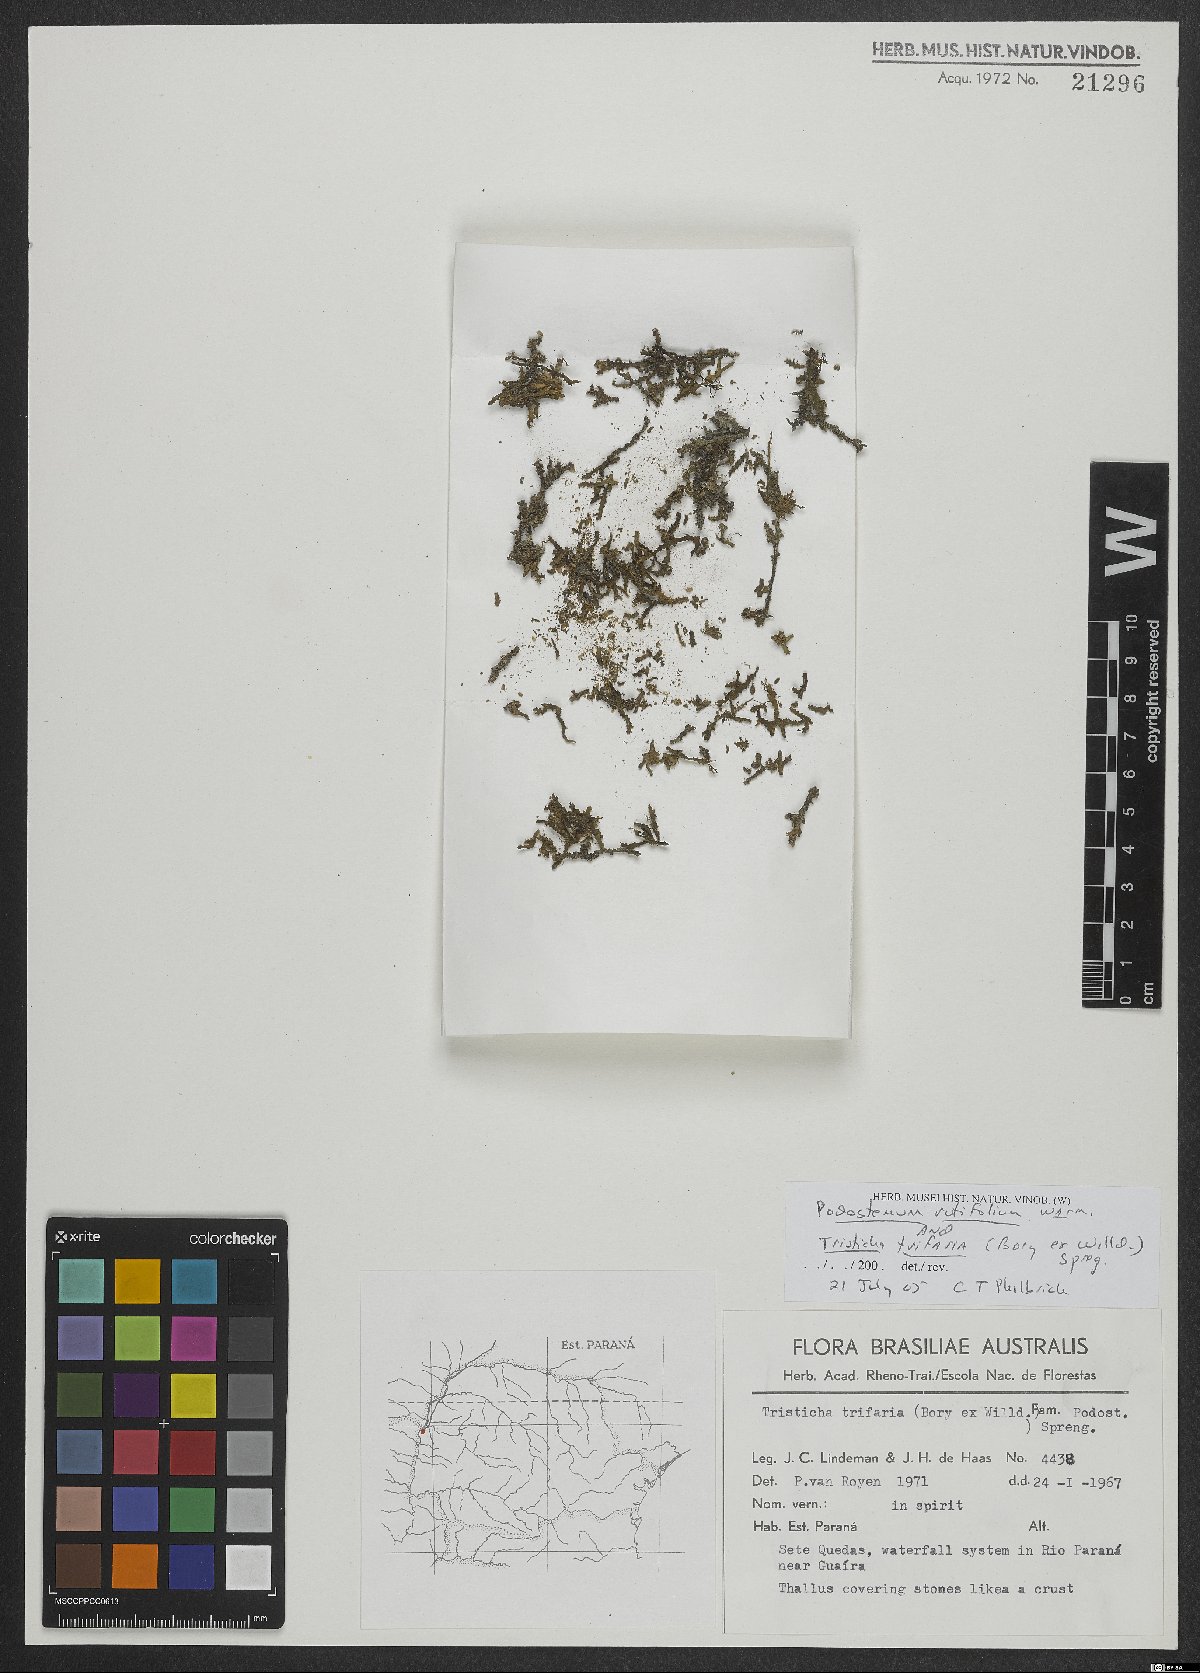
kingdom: Plantae
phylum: Tracheophyta
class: Magnoliopsida
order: Malpighiales
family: Podostemaceae
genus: Podostemum
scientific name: Podostemum rutifolium
